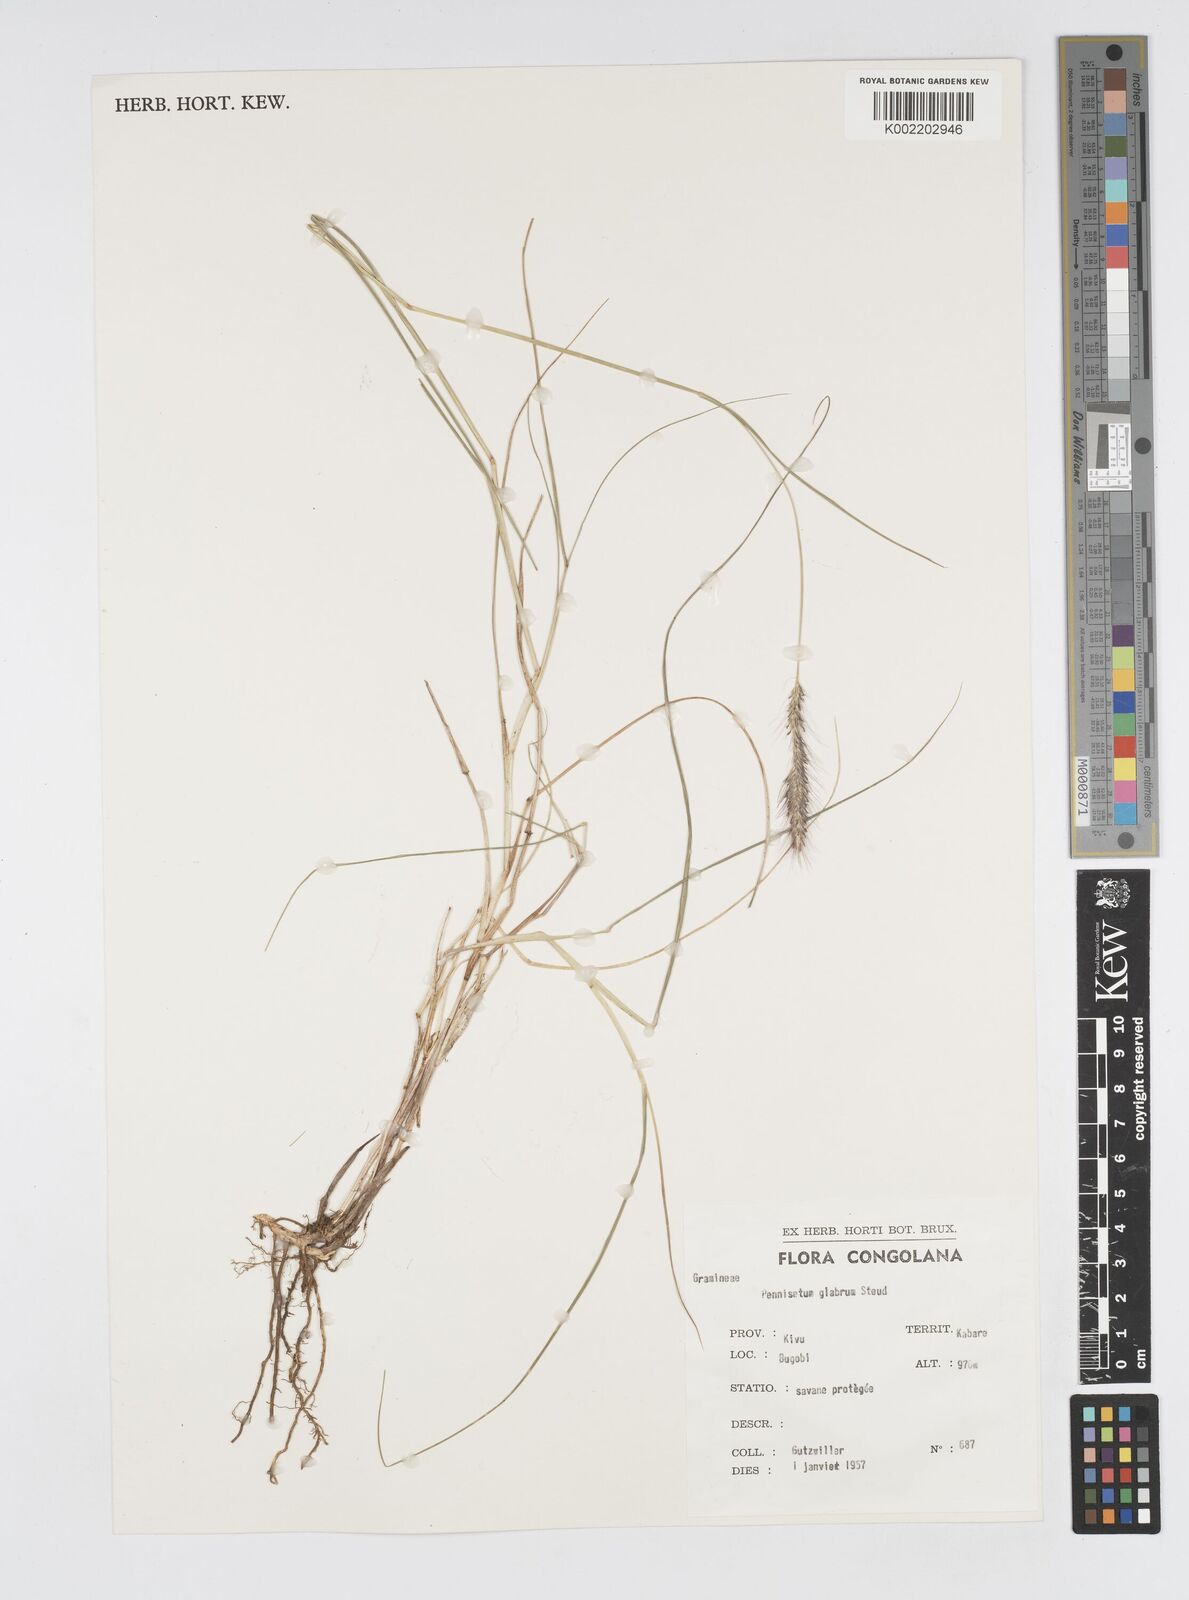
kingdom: Plantae
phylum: Tracheophyta
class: Liliopsida
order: Poales
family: Poaceae
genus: Cenchrus
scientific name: Cenchrus geniculatus
